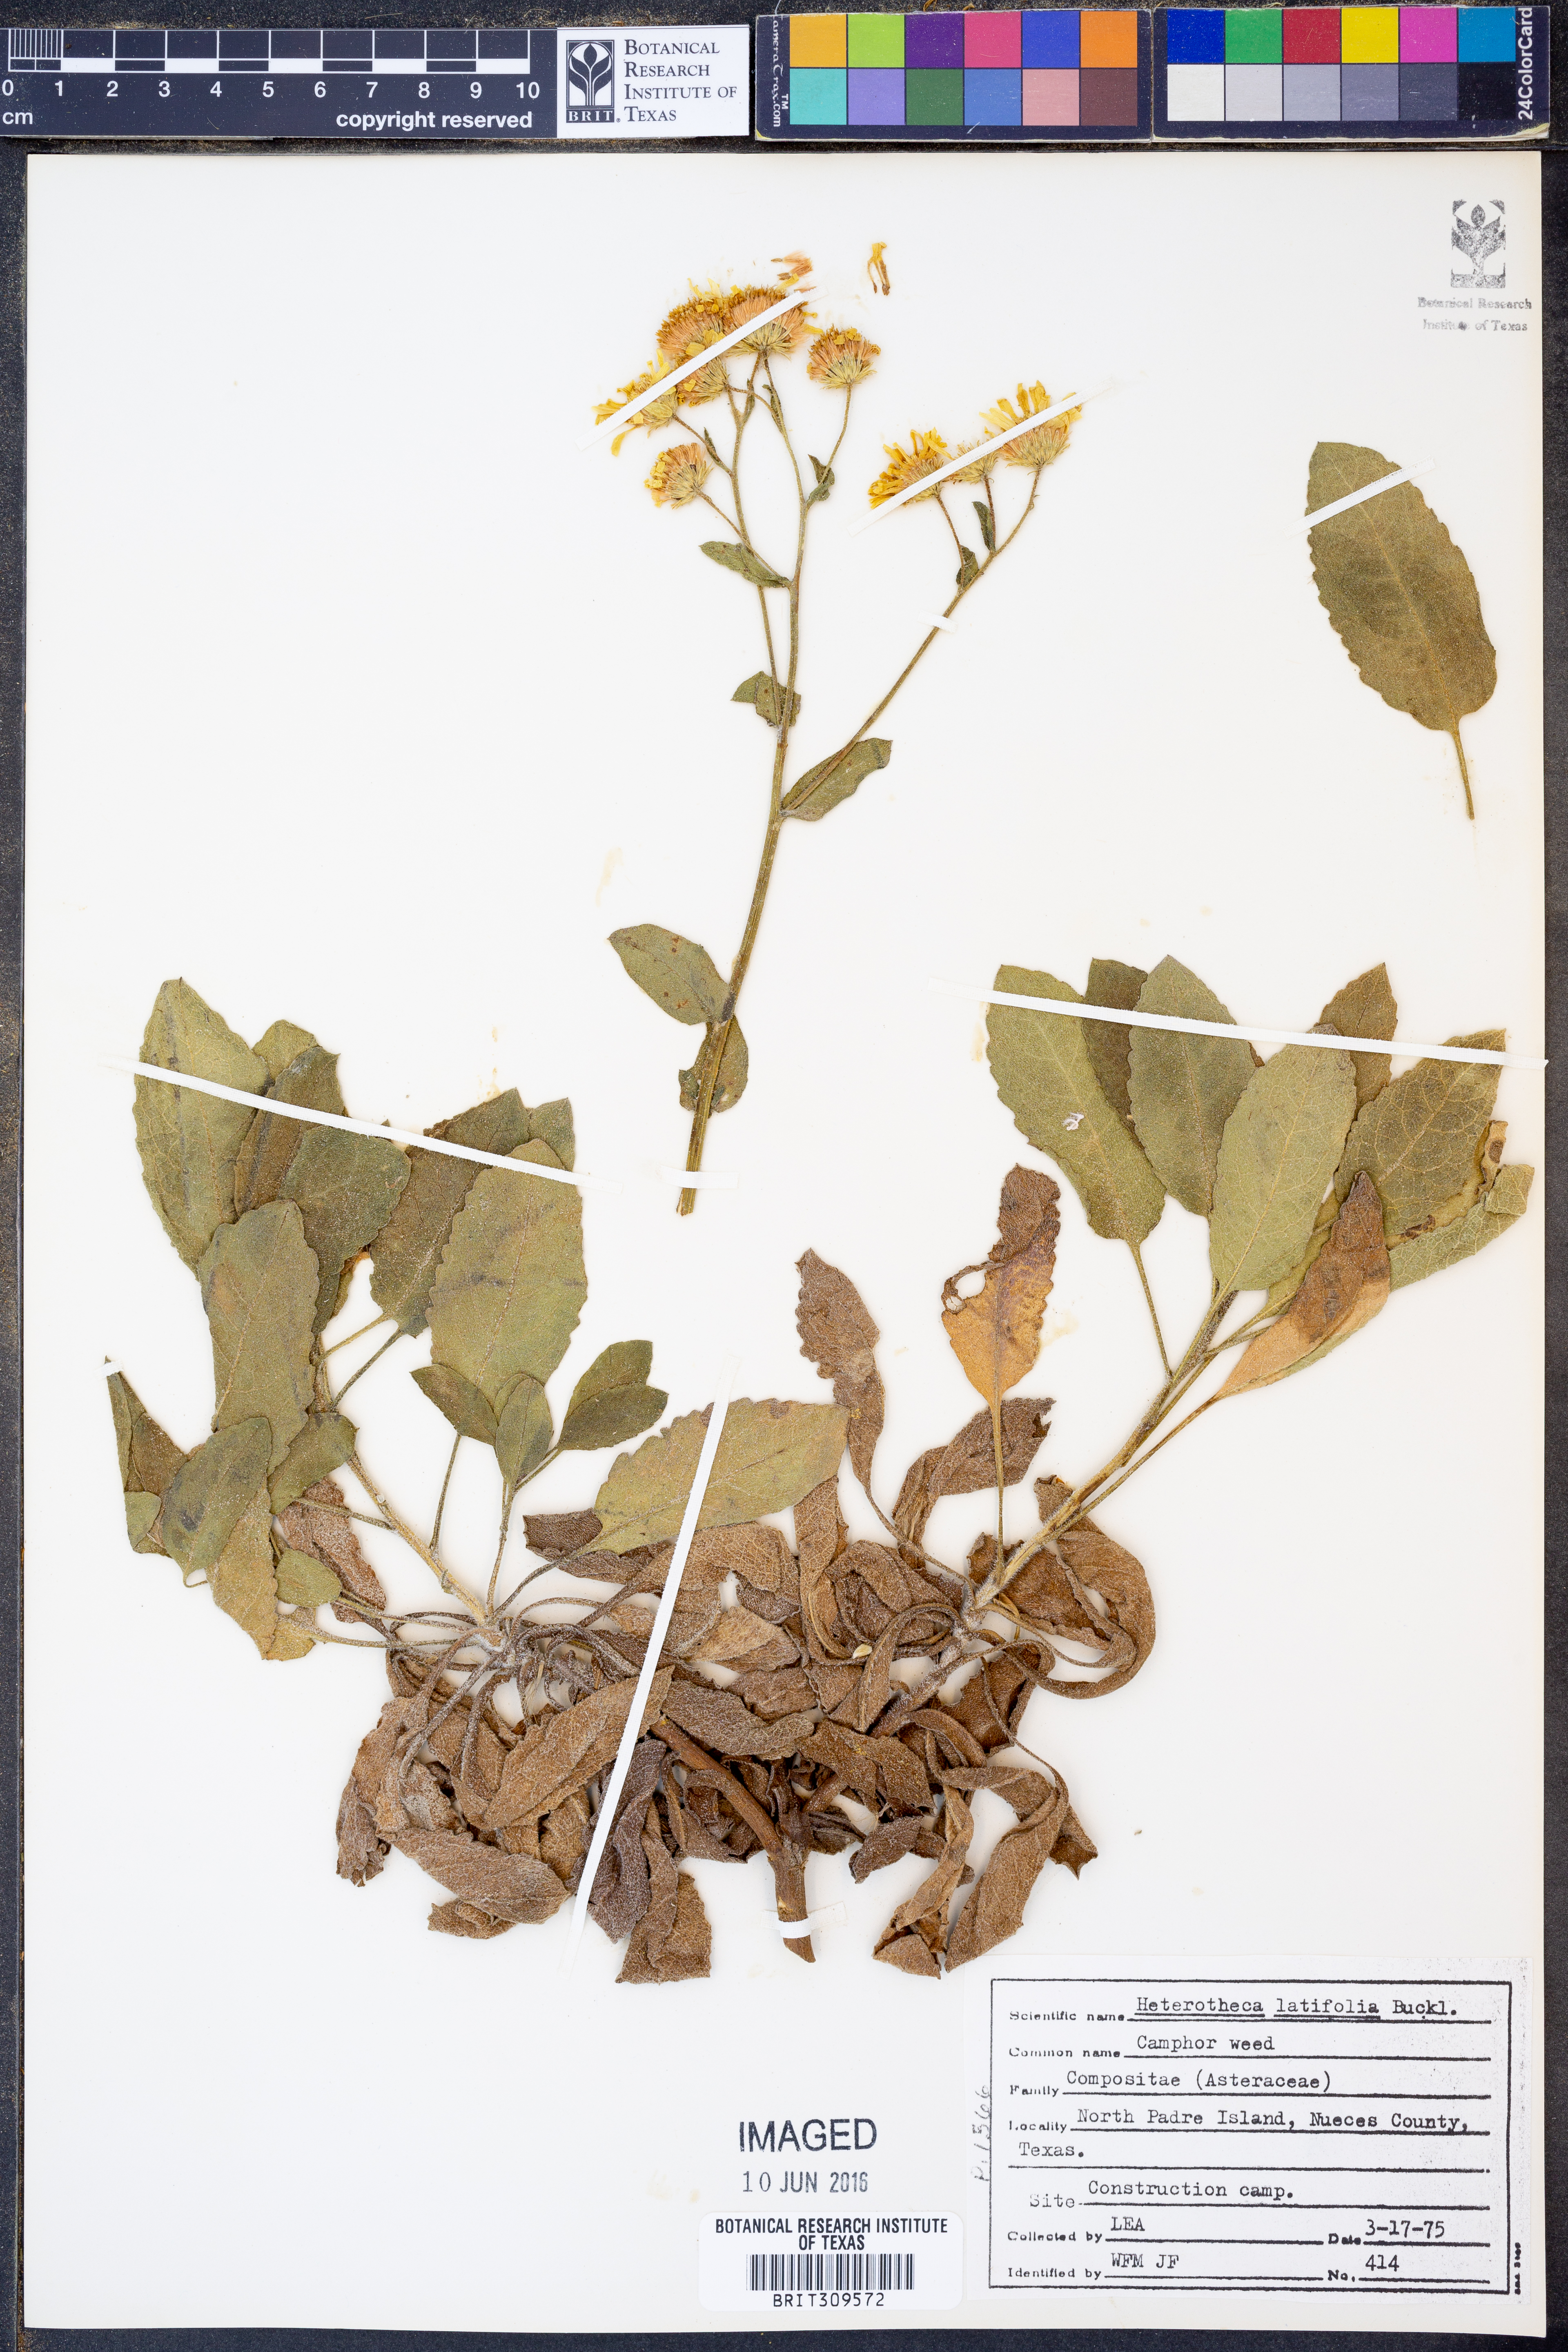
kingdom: Plantae
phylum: Tracheophyta
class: Magnoliopsida
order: Asterales
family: Asteraceae
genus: Heterotheca
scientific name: Heterotheca subaxillaris
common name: Camphorweed
